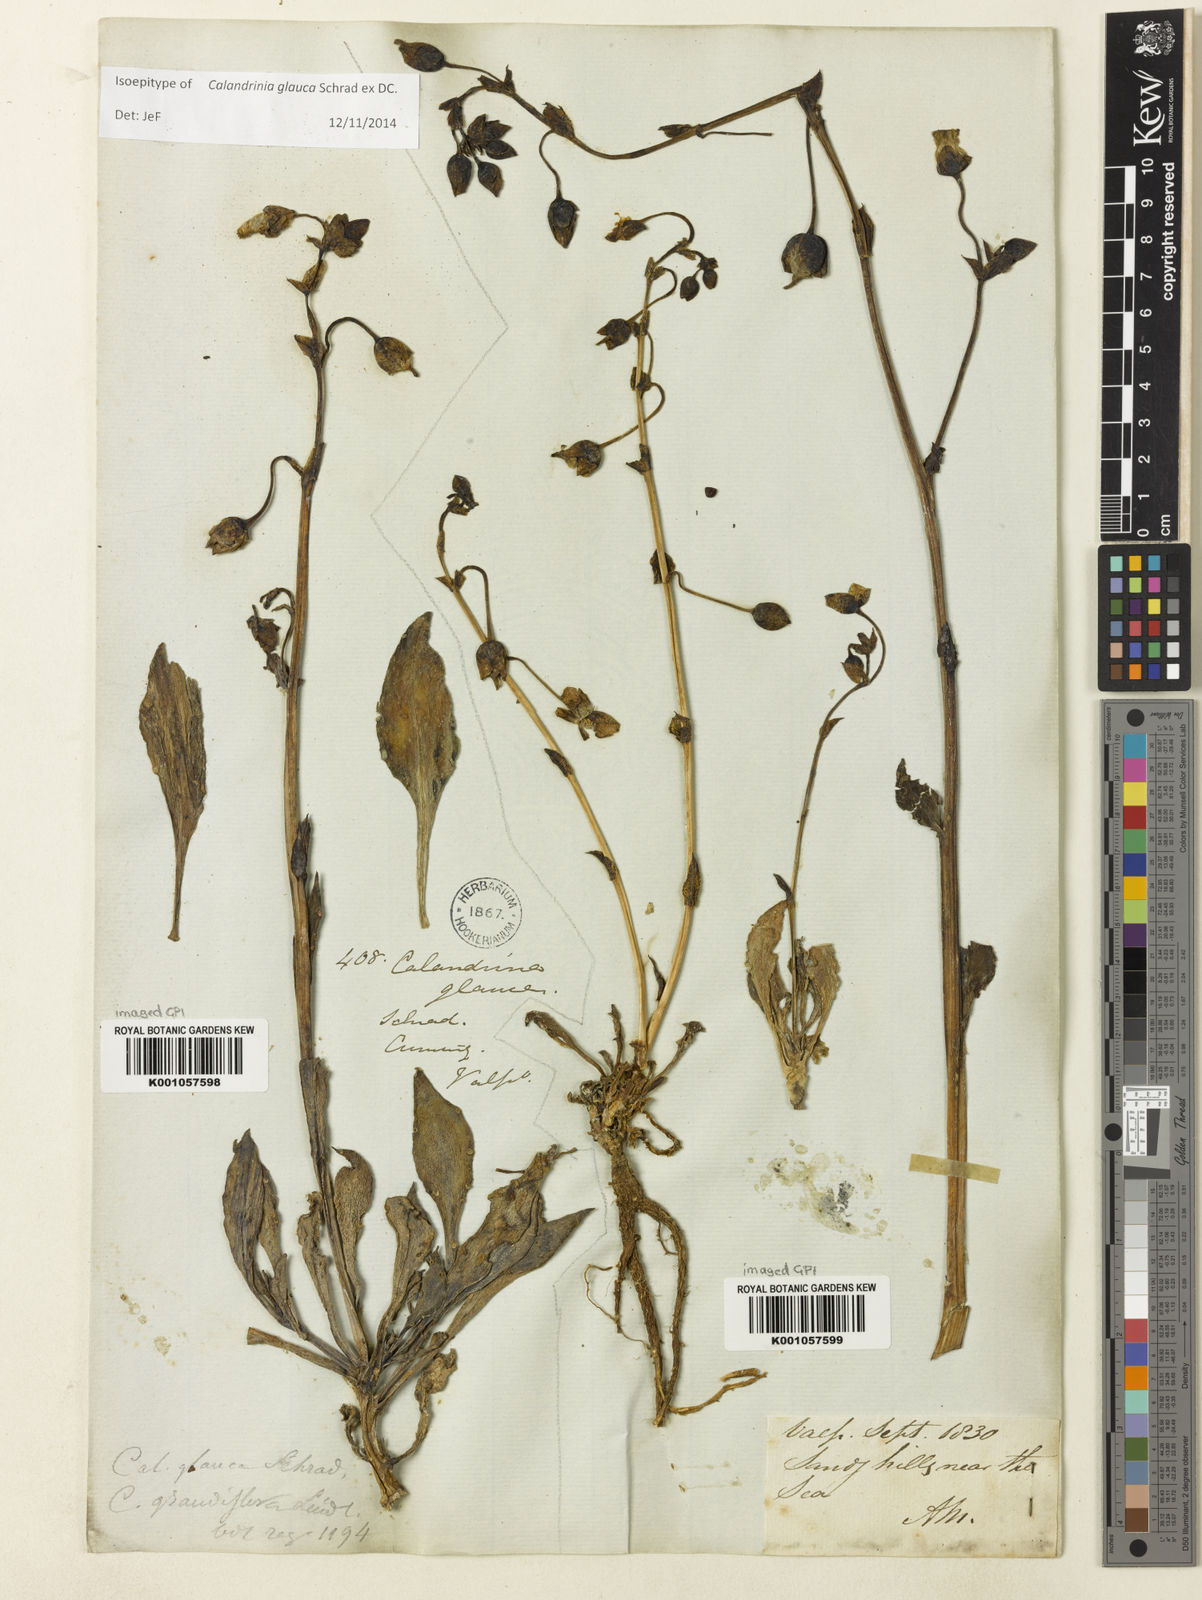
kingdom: Plantae
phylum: Tracheophyta
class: Magnoliopsida
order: Caryophyllales
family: Montiaceae
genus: Cistanthe
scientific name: Cistanthe grandiflora
